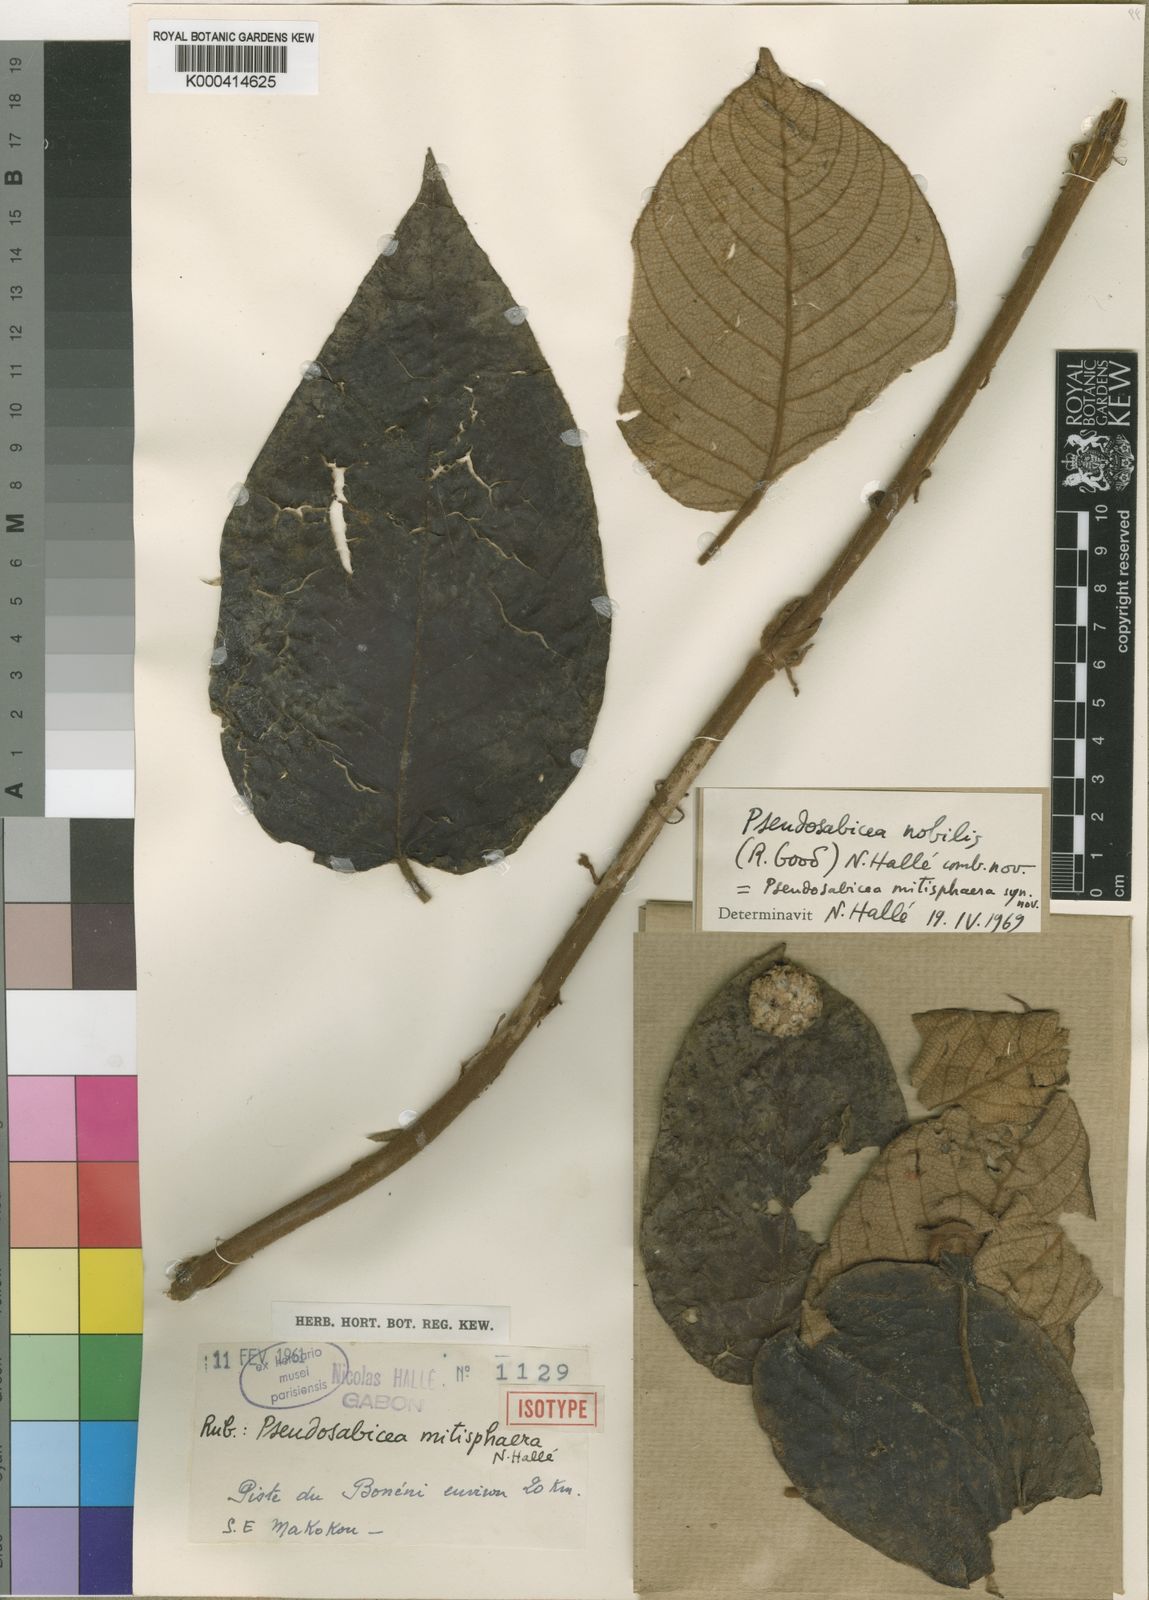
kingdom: Plantae
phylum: Tracheophyta
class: Magnoliopsida
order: Gentianales
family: Rubiaceae
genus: Sabicea
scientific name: Sabicea nobilis
